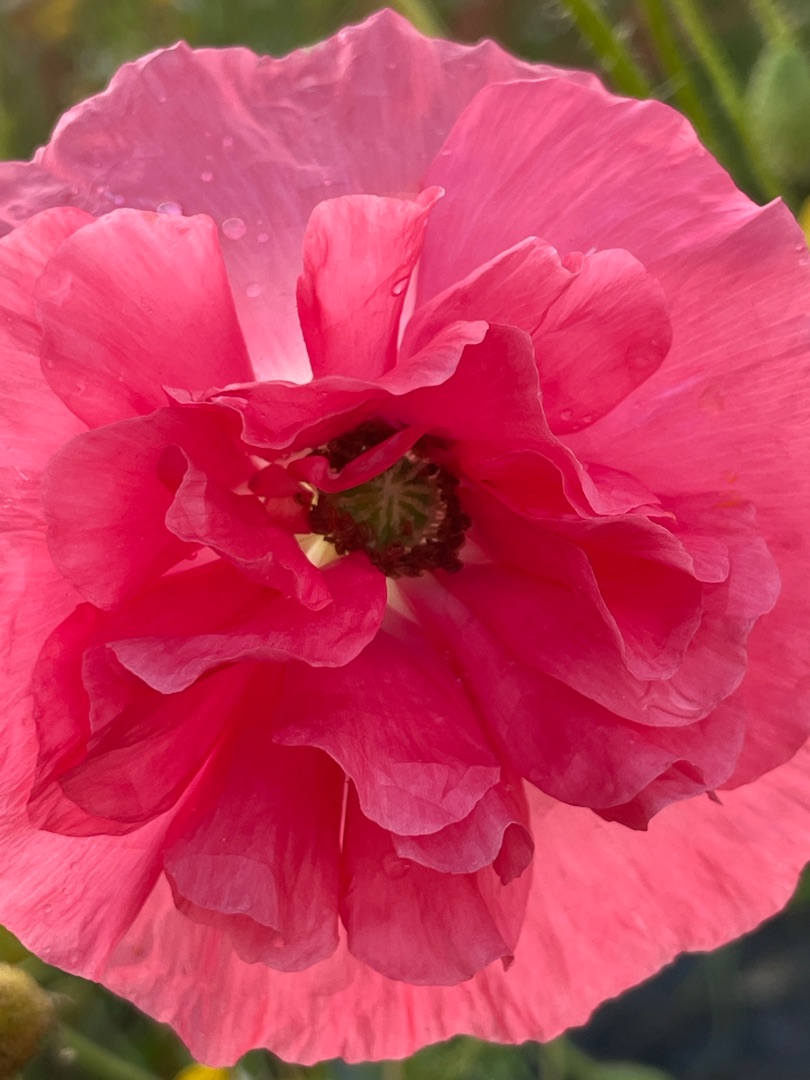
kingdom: Plantae
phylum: Tracheophyta
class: Magnoliopsida
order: Ranunculales
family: Papaveraceae
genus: Papaver
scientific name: Papaver rhoeas
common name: Korn-valmue
